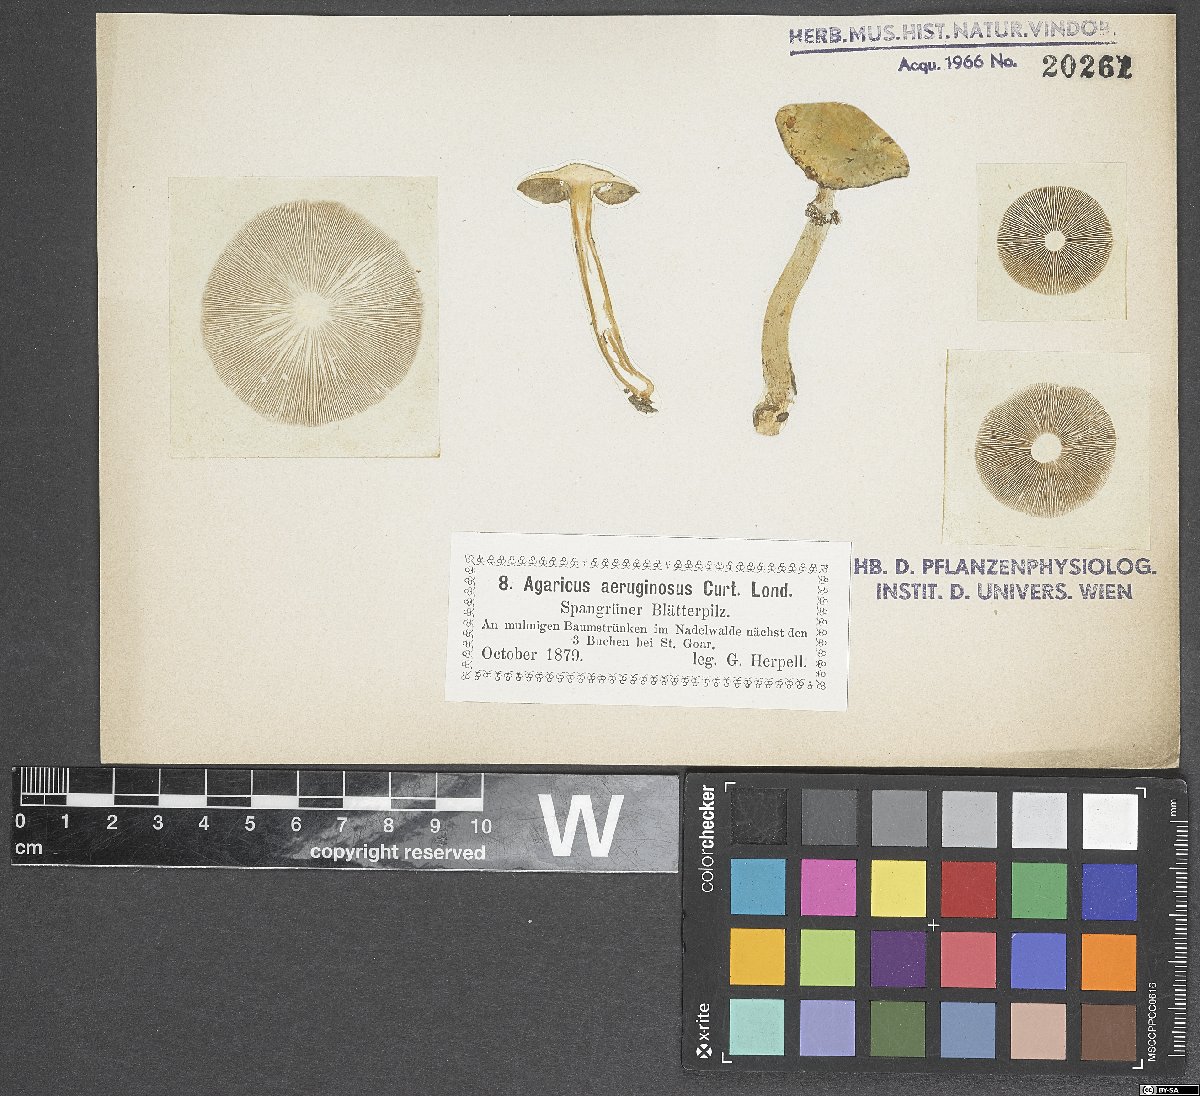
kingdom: Fungi
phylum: Basidiomycota
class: Agaricomycetes
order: Agaricales
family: Strophariaceae
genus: Stropharia
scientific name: Stropharia aeruginosa
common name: Verdigris roundhead
